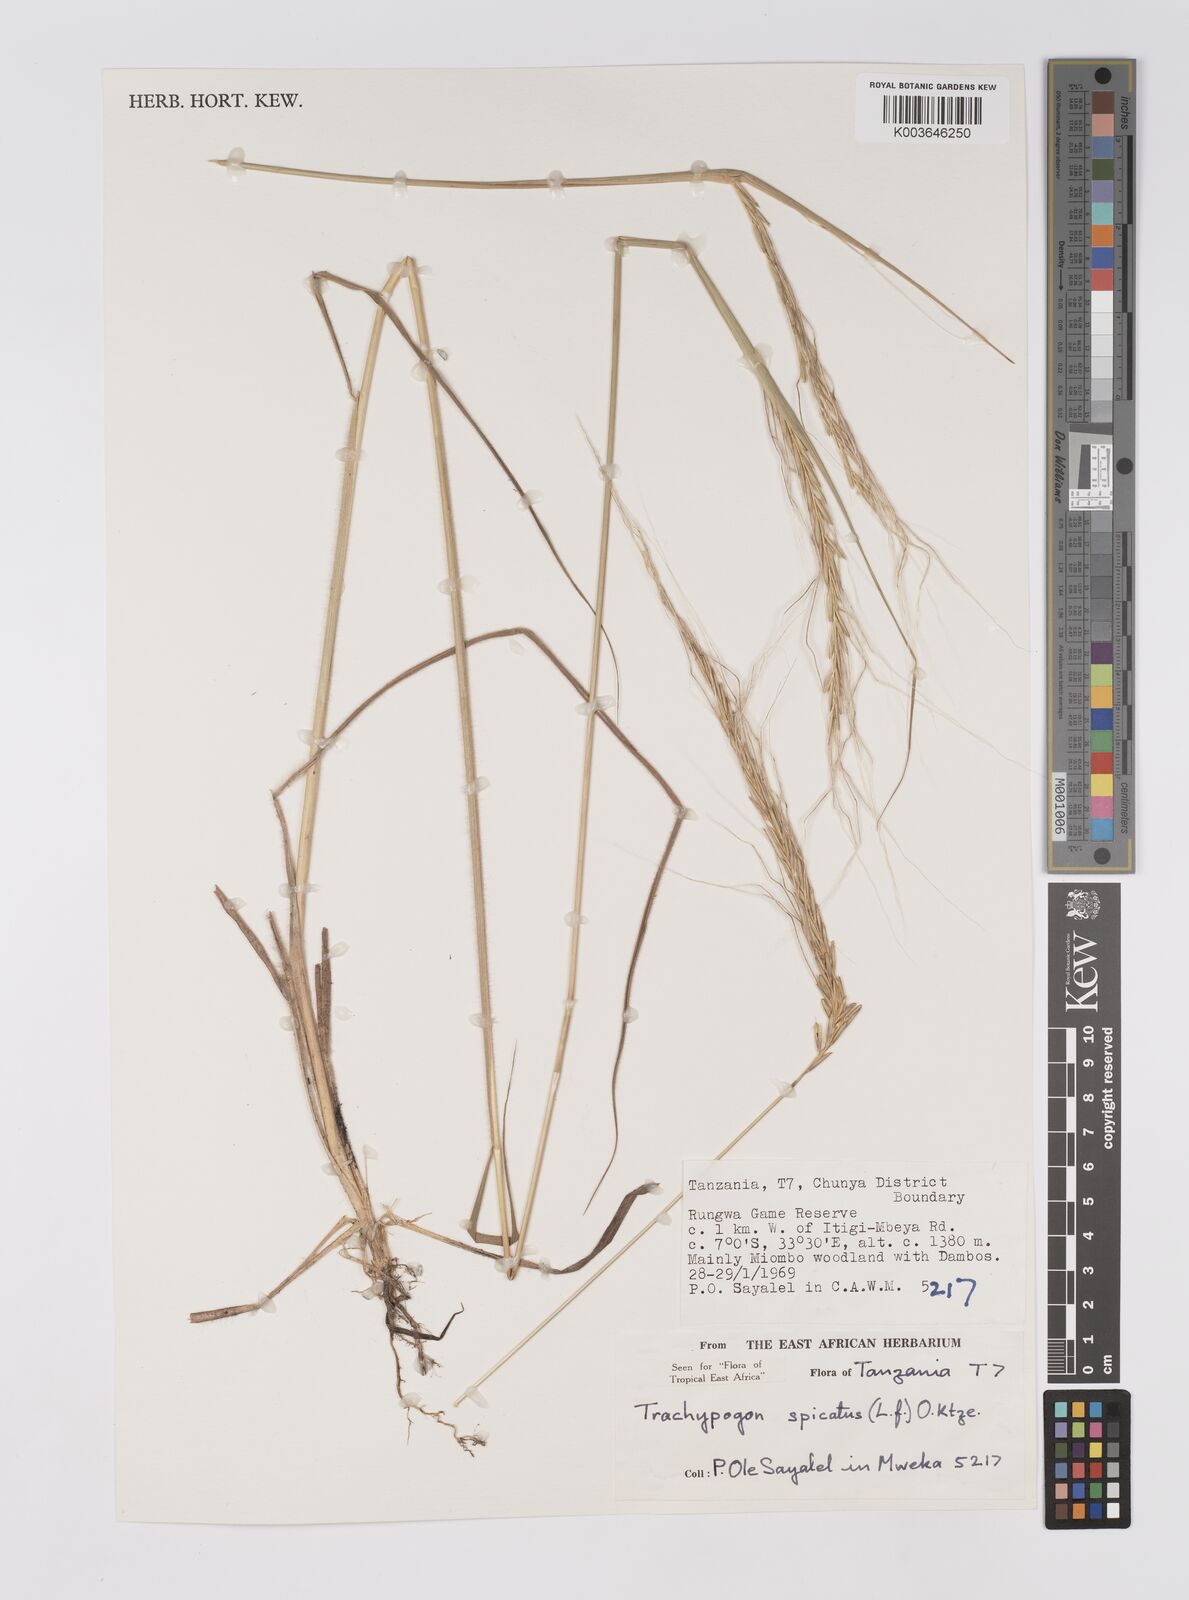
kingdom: Plantae
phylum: Tracheophyta
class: Liliopsida
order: Poales
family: Poaceae
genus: Trachypogon
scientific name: Trachypogon spicatus
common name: Crinkle-awn
